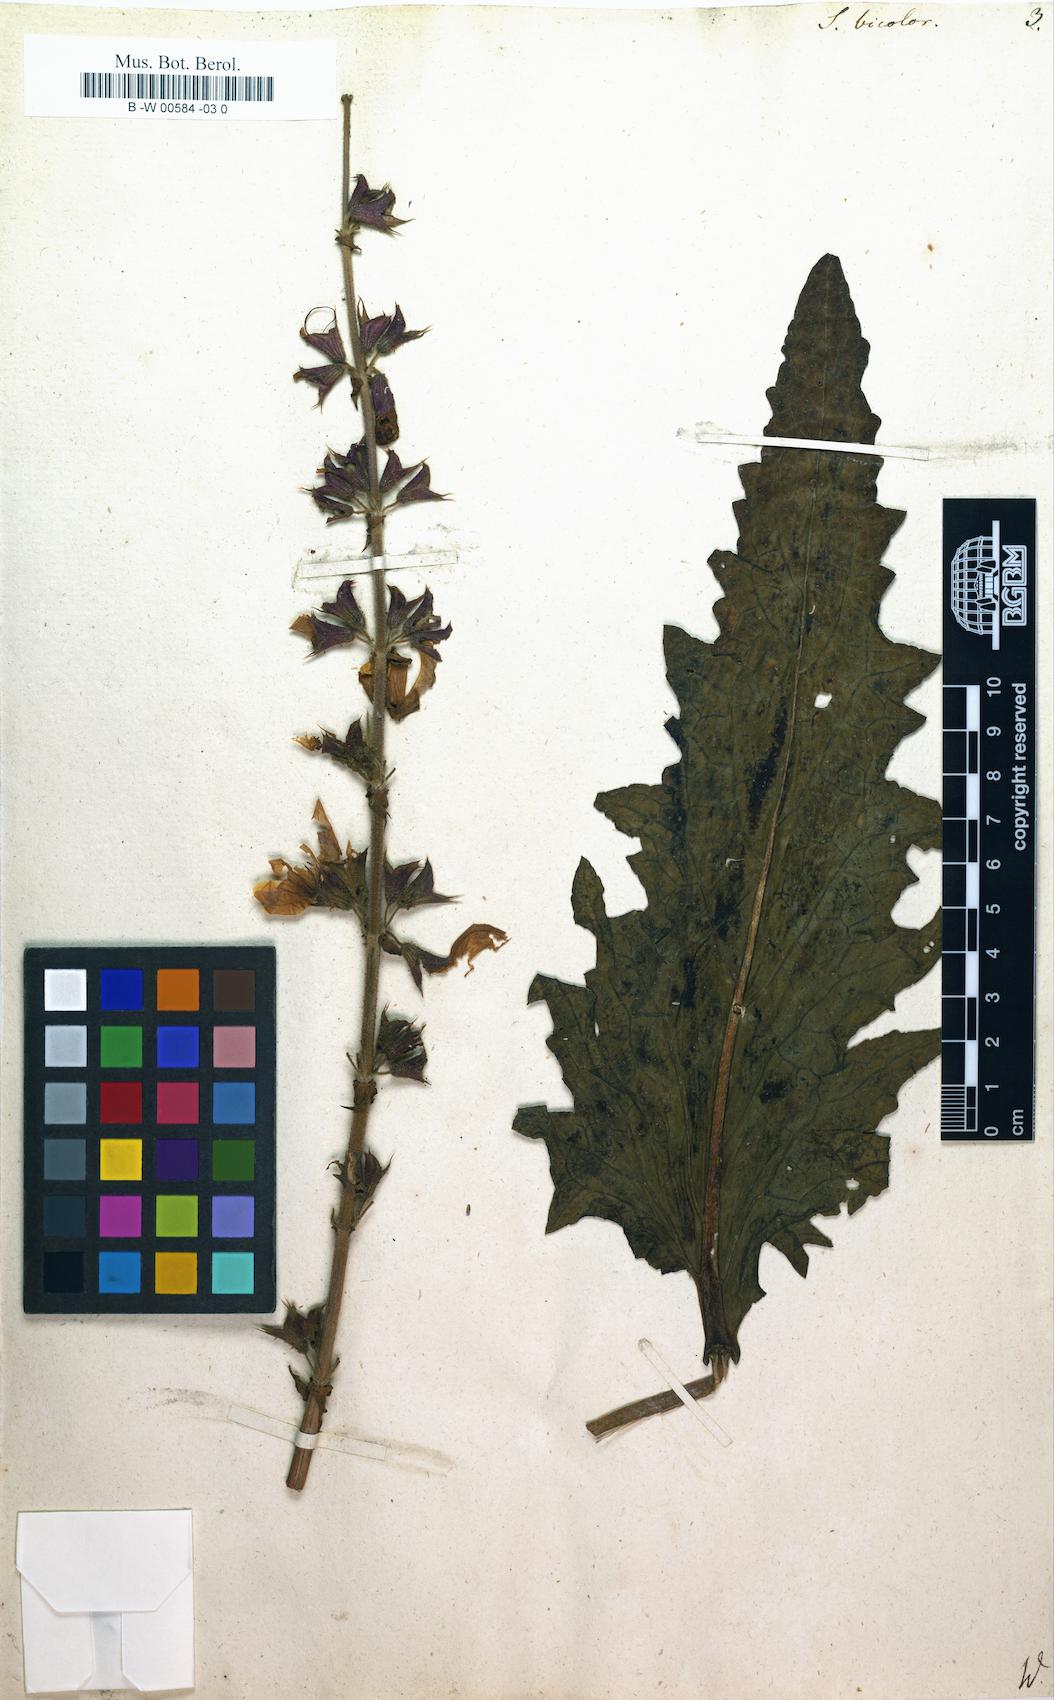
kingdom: Plantae
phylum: Tracheophyta
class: Magnoliopsida
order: Lamiales
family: Lamiaceae
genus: Salvia
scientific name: Salvia barrelieri
